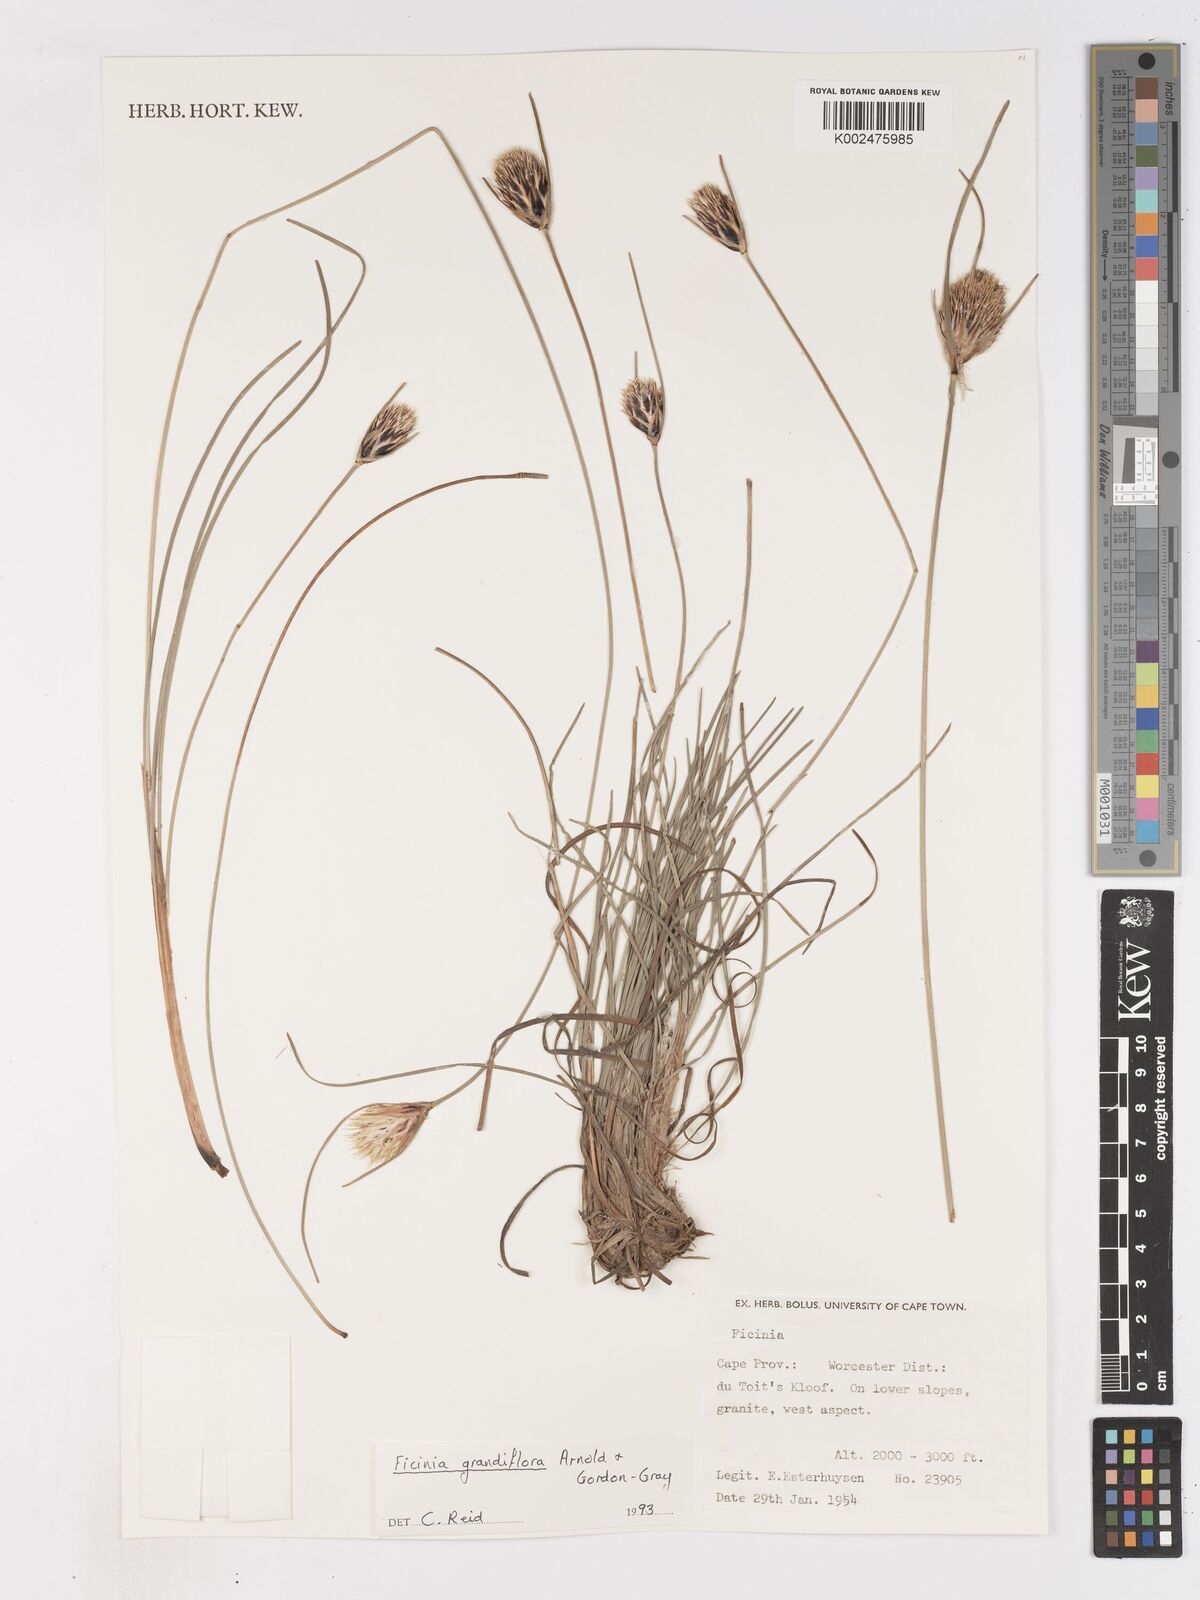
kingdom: Plantae
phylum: Tracheophyta
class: Liliopsida
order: Poales
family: Cyperaceae
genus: Ficinia
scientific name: Ficinia grandiflora
